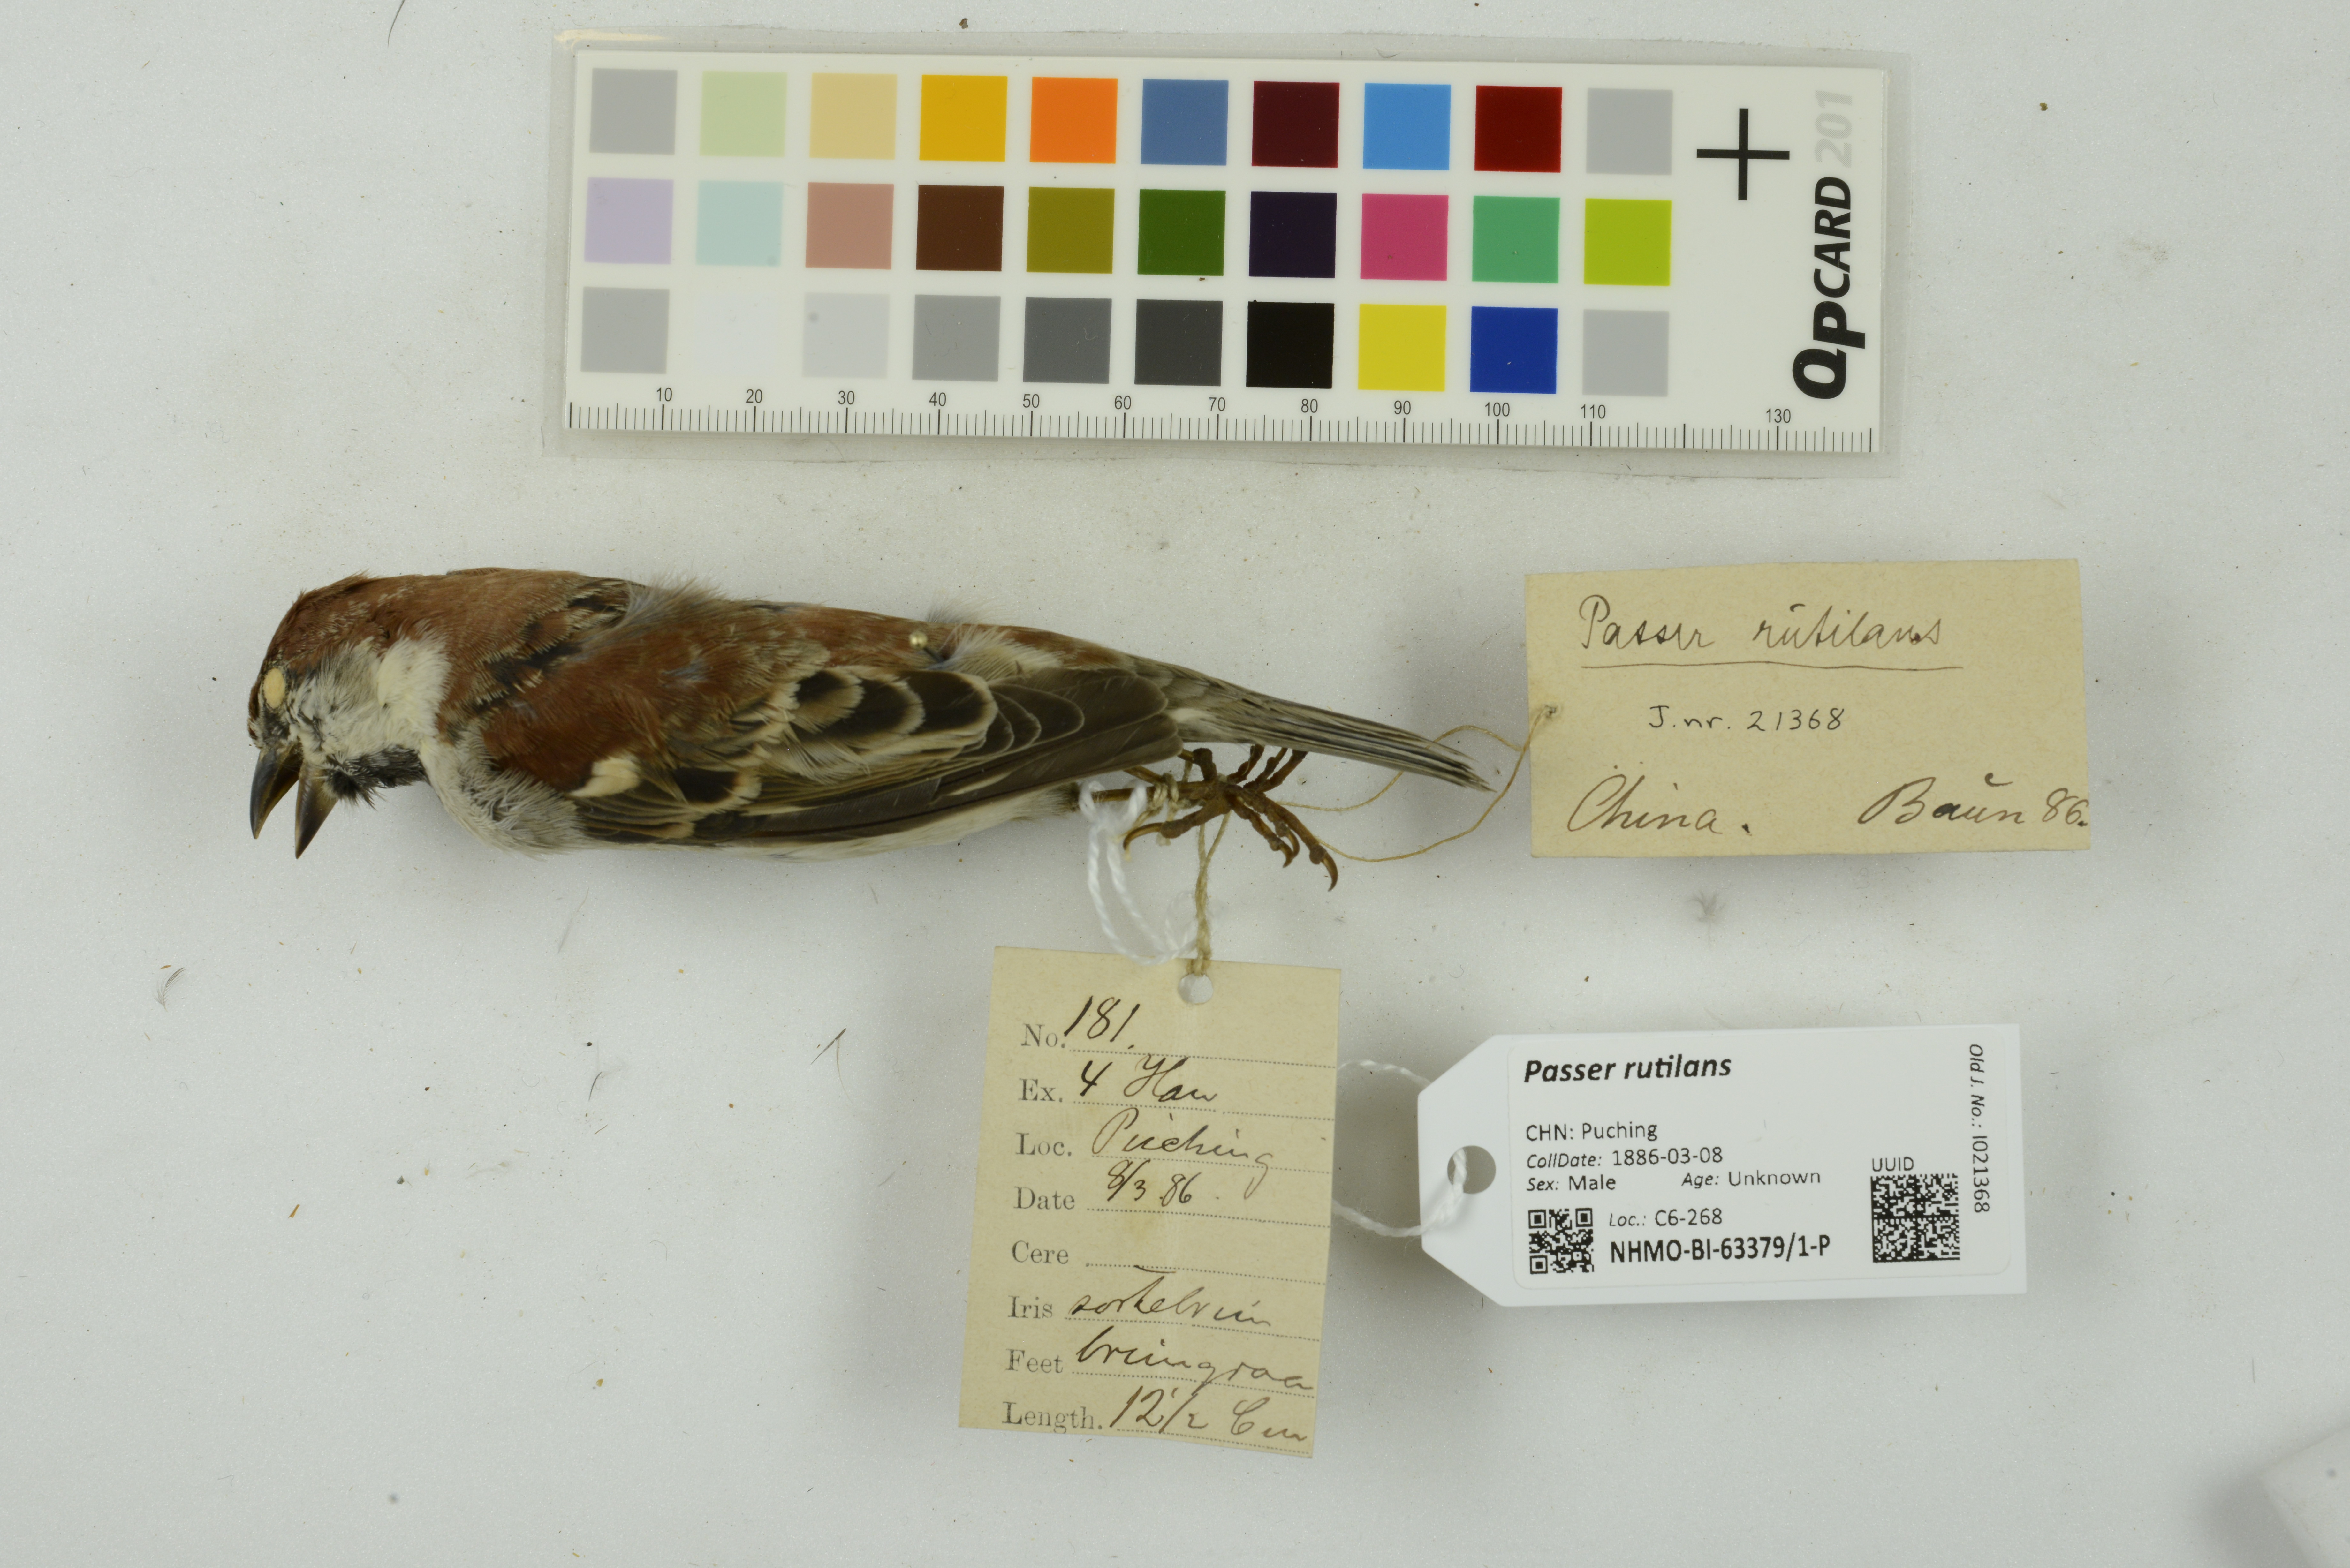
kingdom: Animalia
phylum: Chordata
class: Aves
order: Passeriformes
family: Passeridae
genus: Passer
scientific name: Passer rutilans
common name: Russet sparrow
